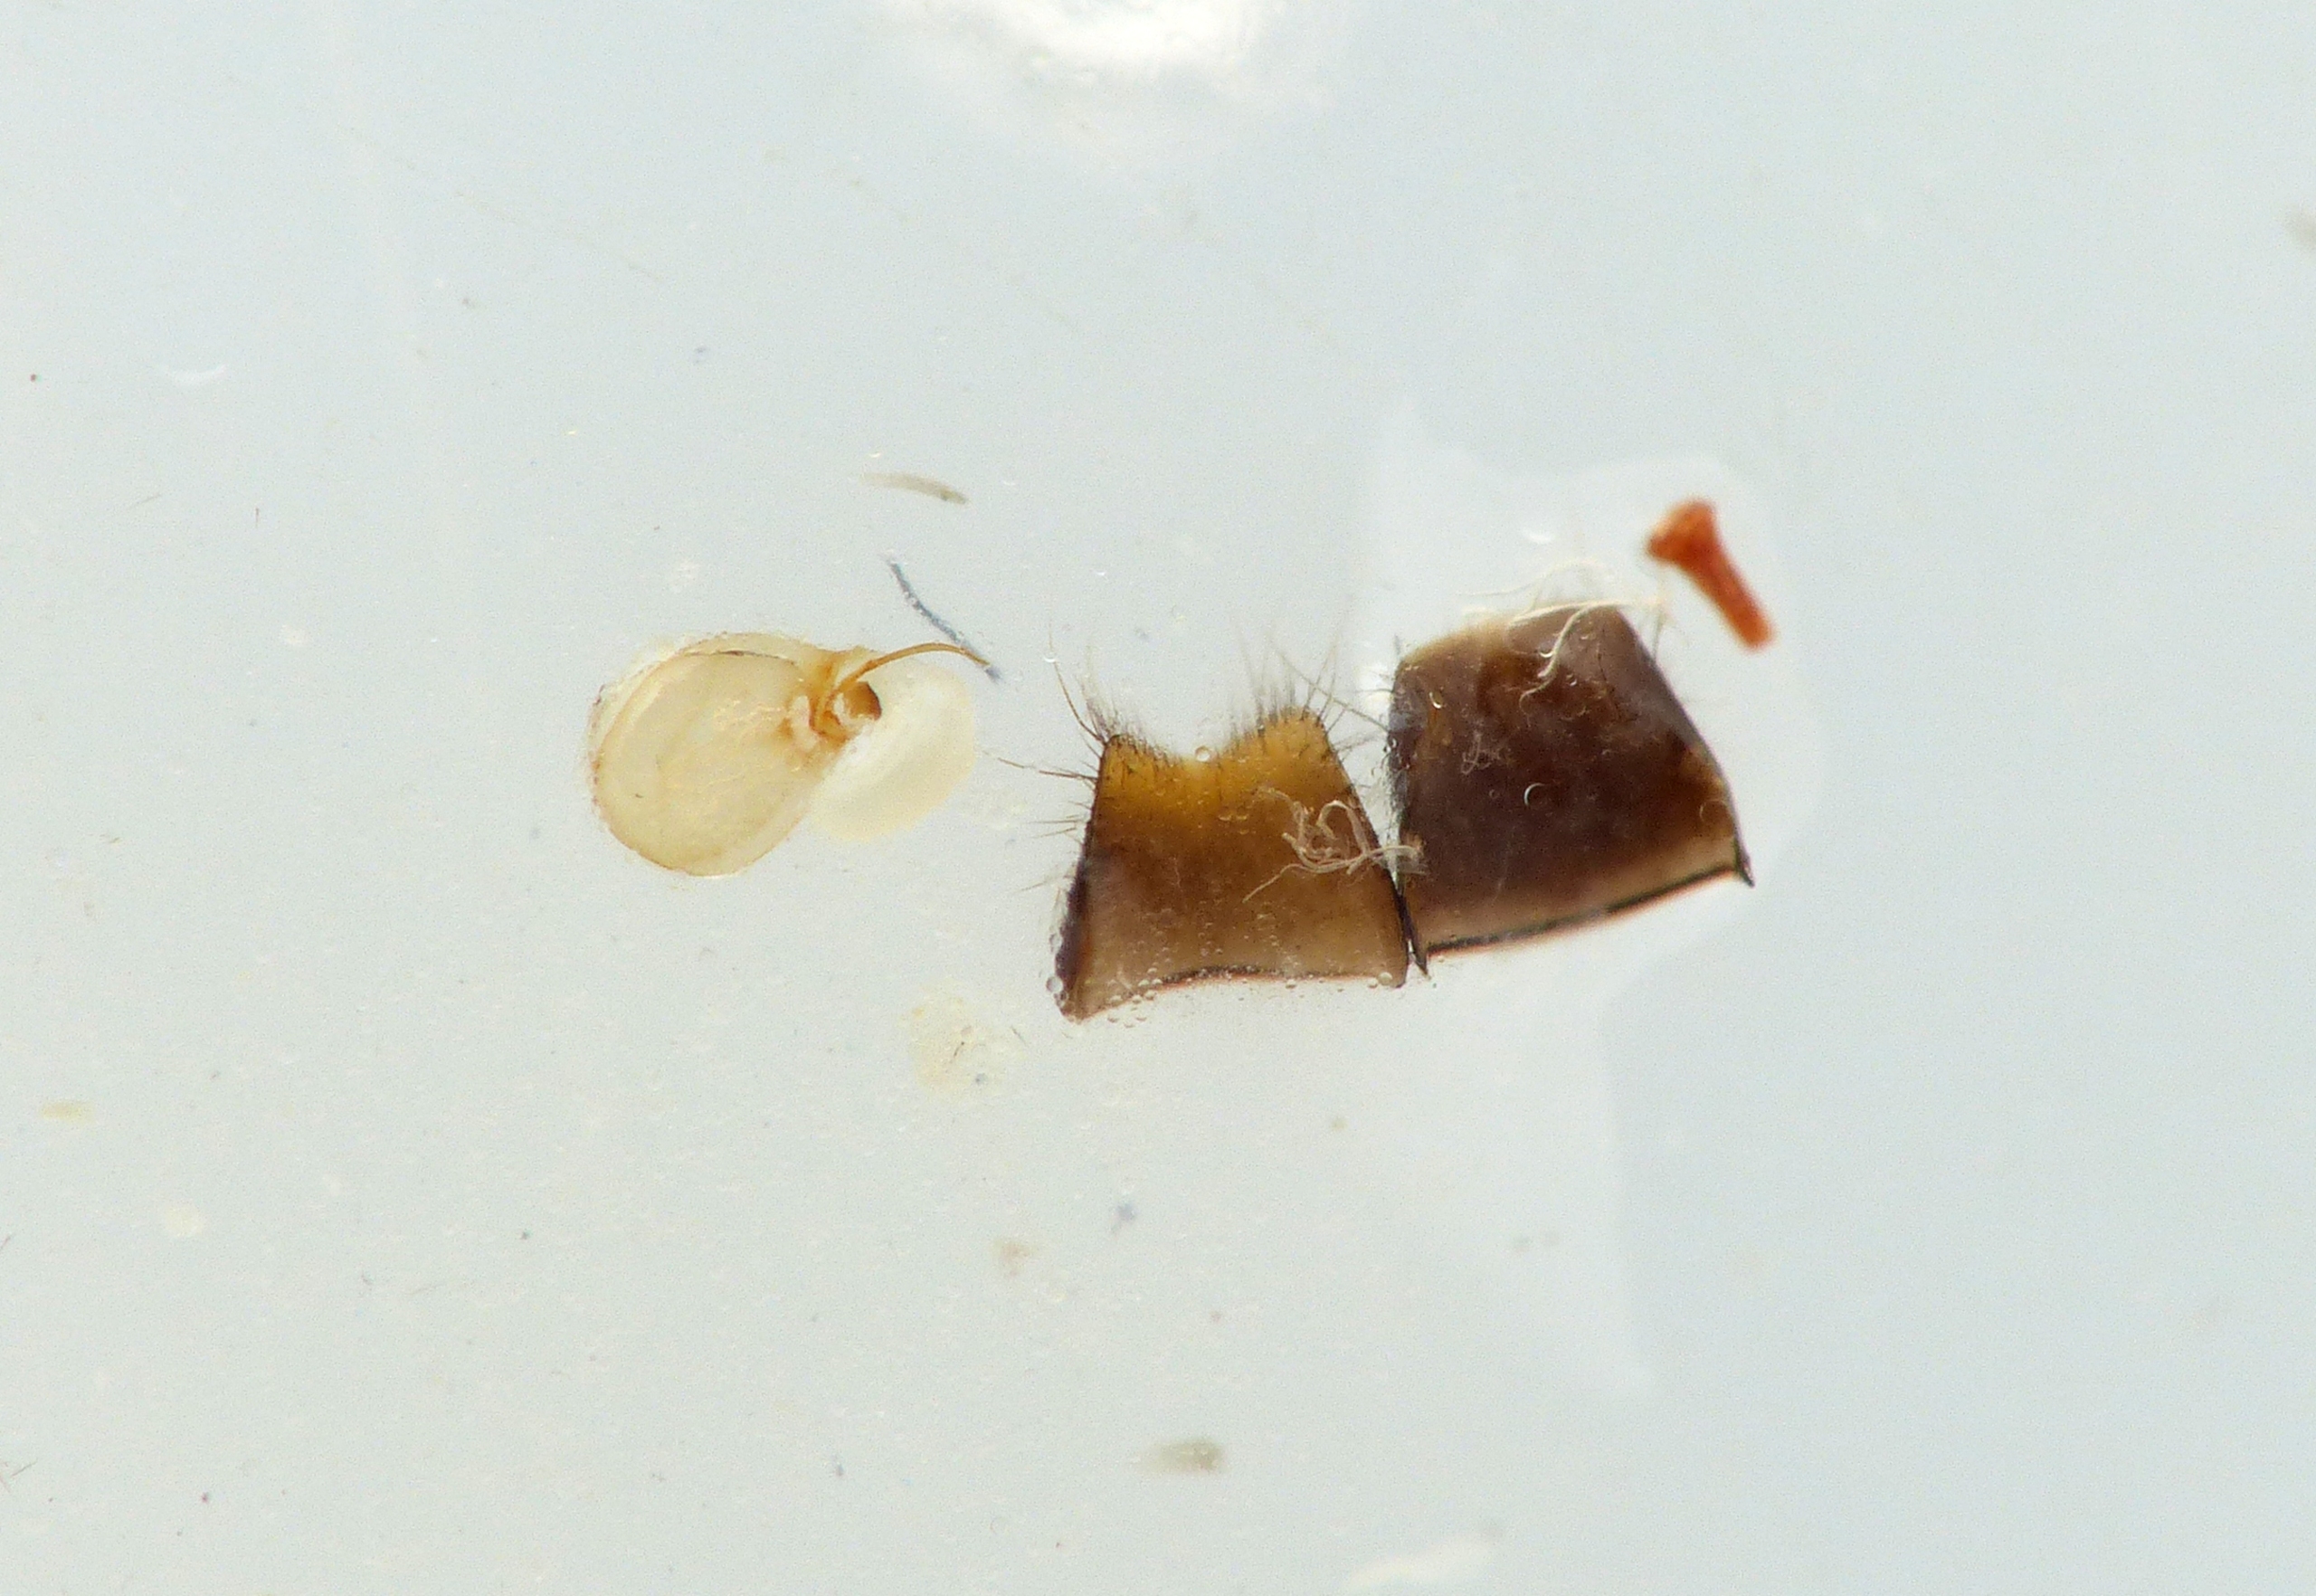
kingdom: Animalia
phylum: Arthropoda
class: Insecta
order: Coleoptera
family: Staphylinidae
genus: Leptacinus
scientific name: Leptacinus intermedius
